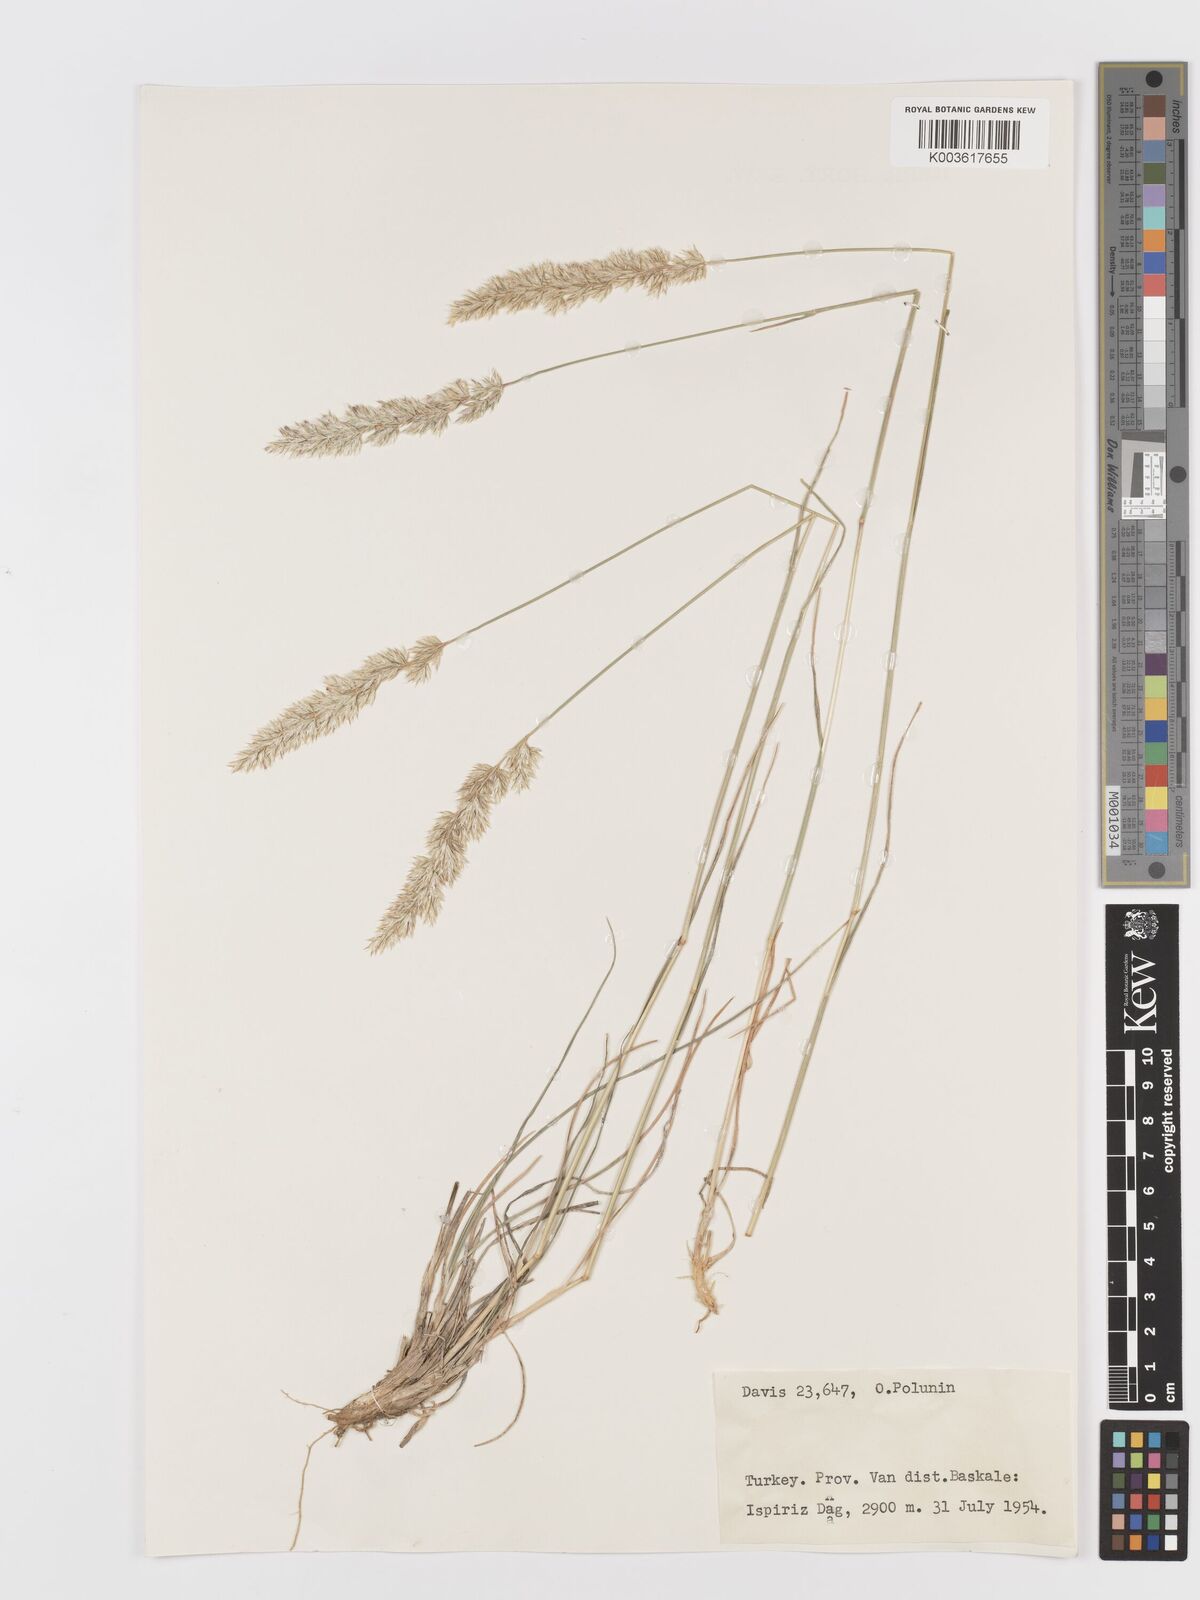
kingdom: Plantae
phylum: Tracheophyta
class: Liliopsida
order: Poales
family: Poaceae
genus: Koeleria
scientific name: Koeleria
